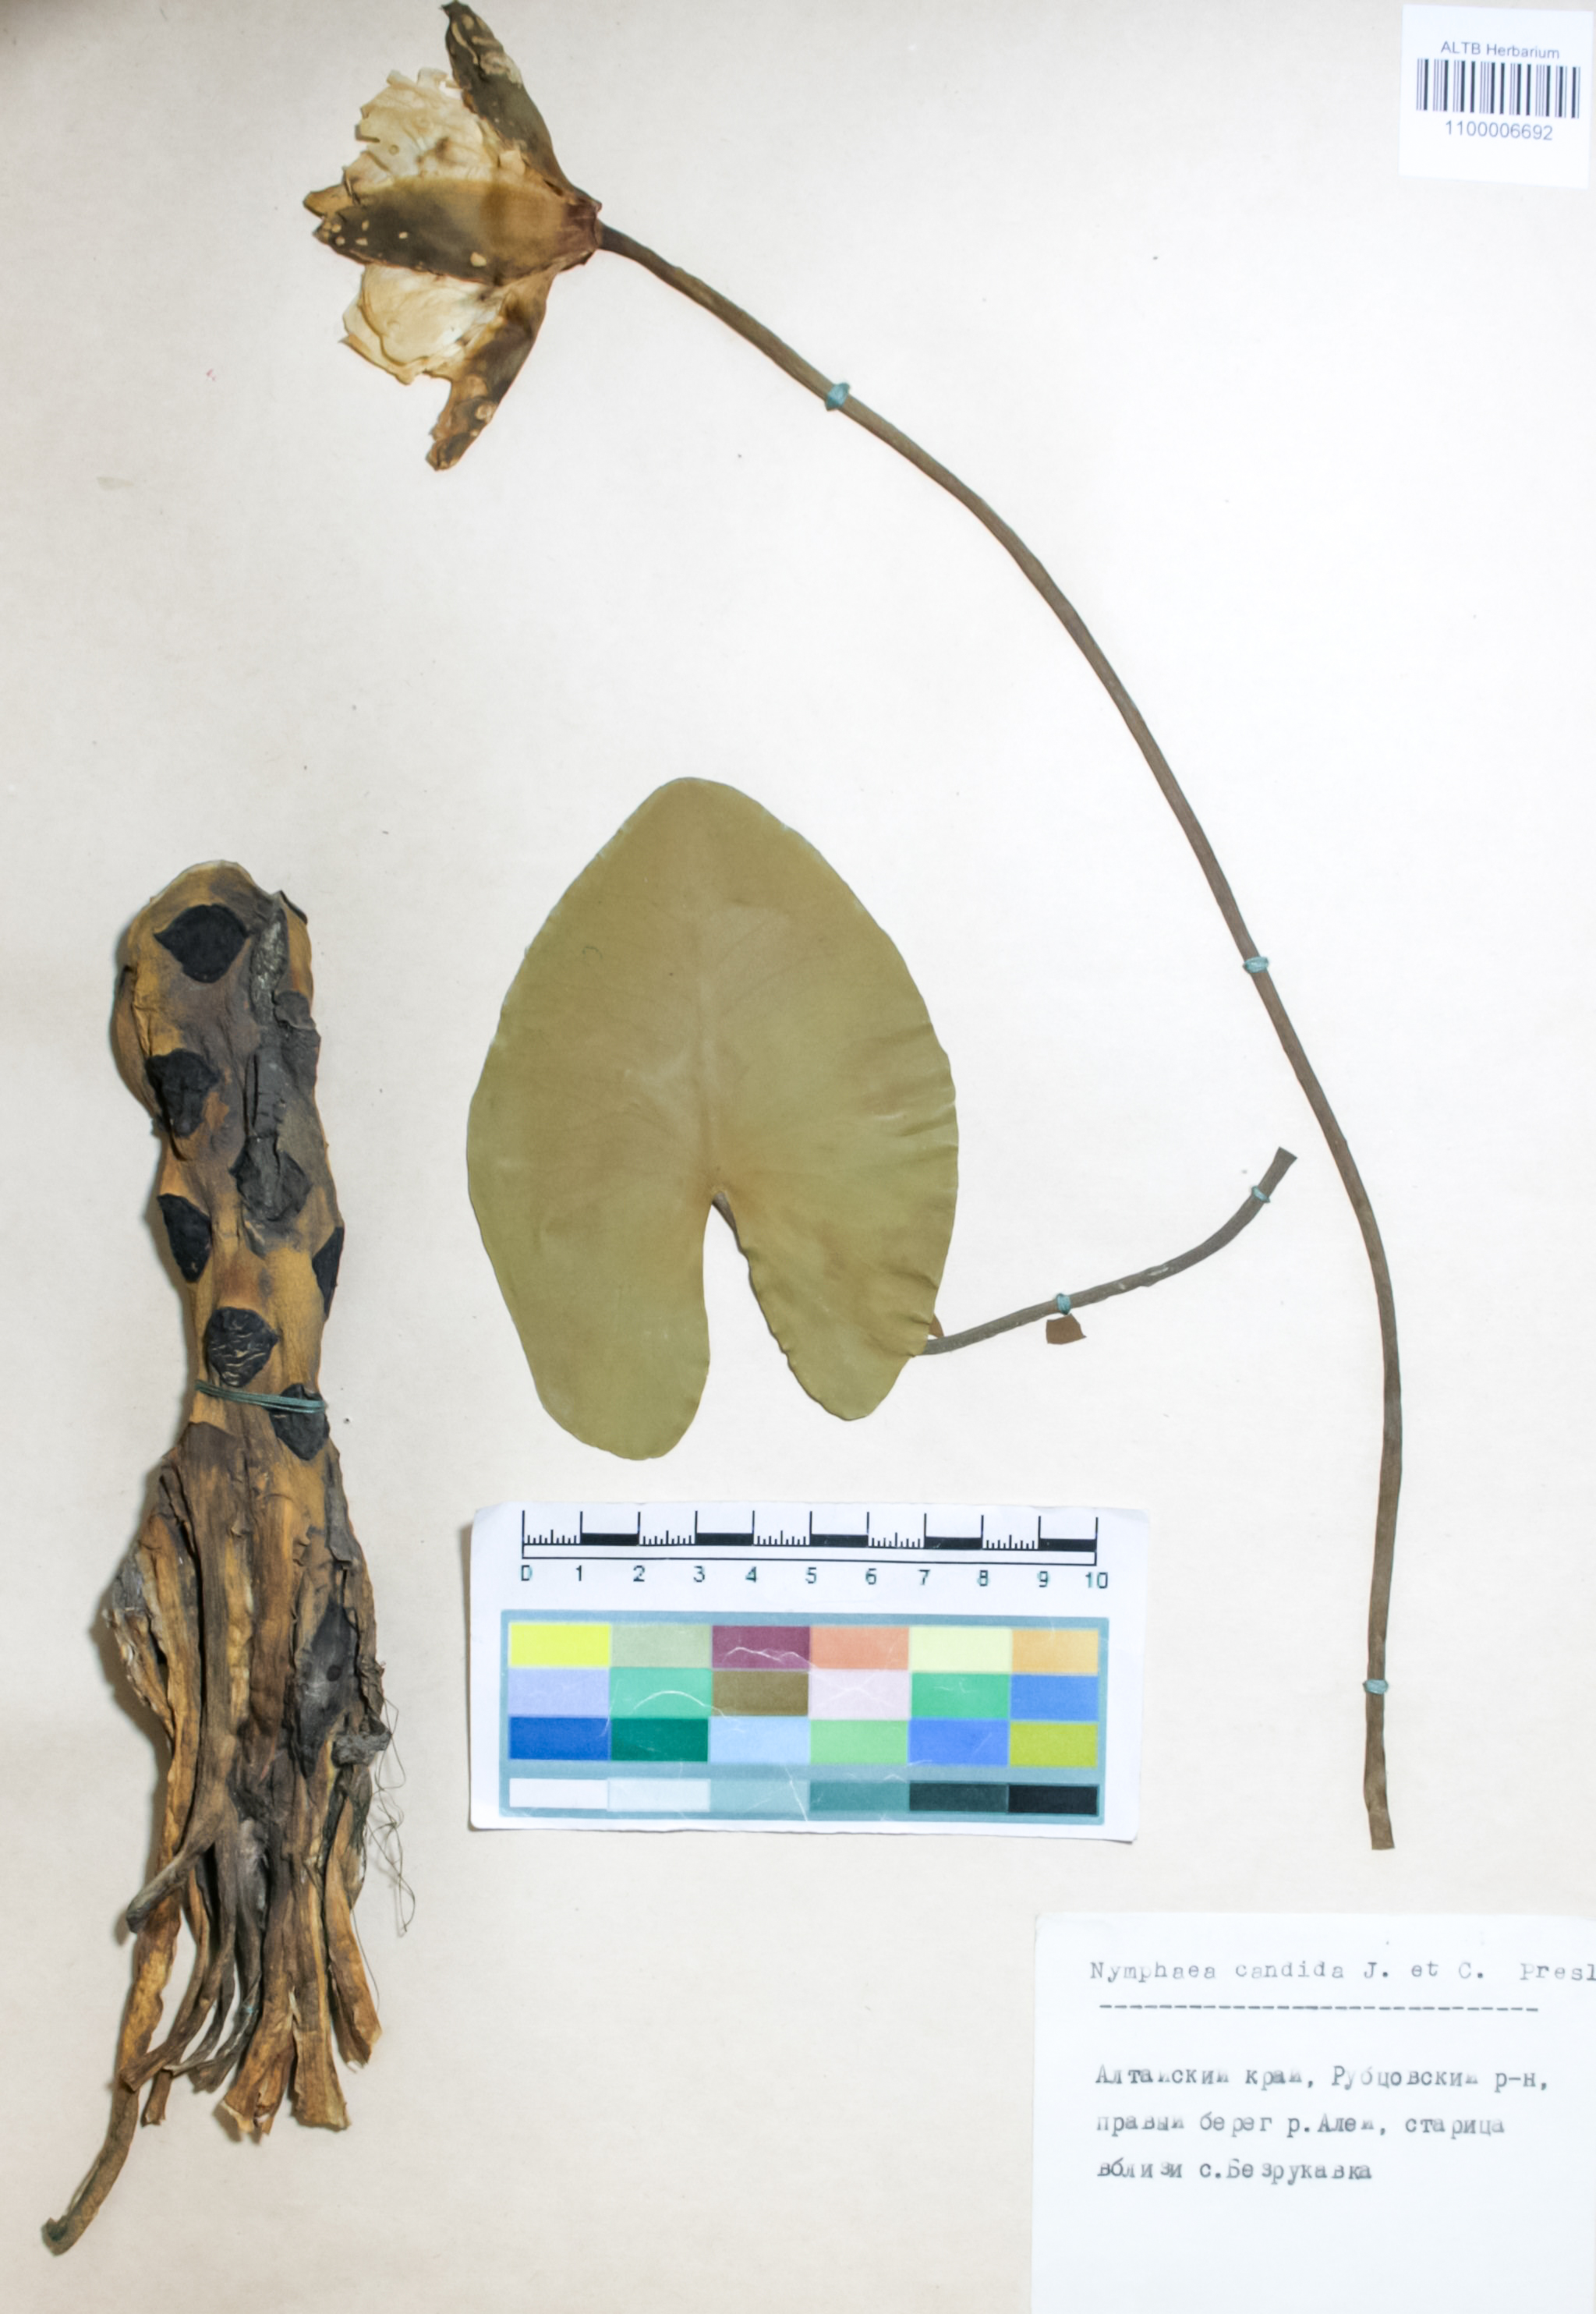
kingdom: Plantae
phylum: Tracheophyta
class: Magnoliopsida
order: Nymphaeales
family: Nymphaeaceae
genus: Nymphaea
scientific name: Nymphaea candida
